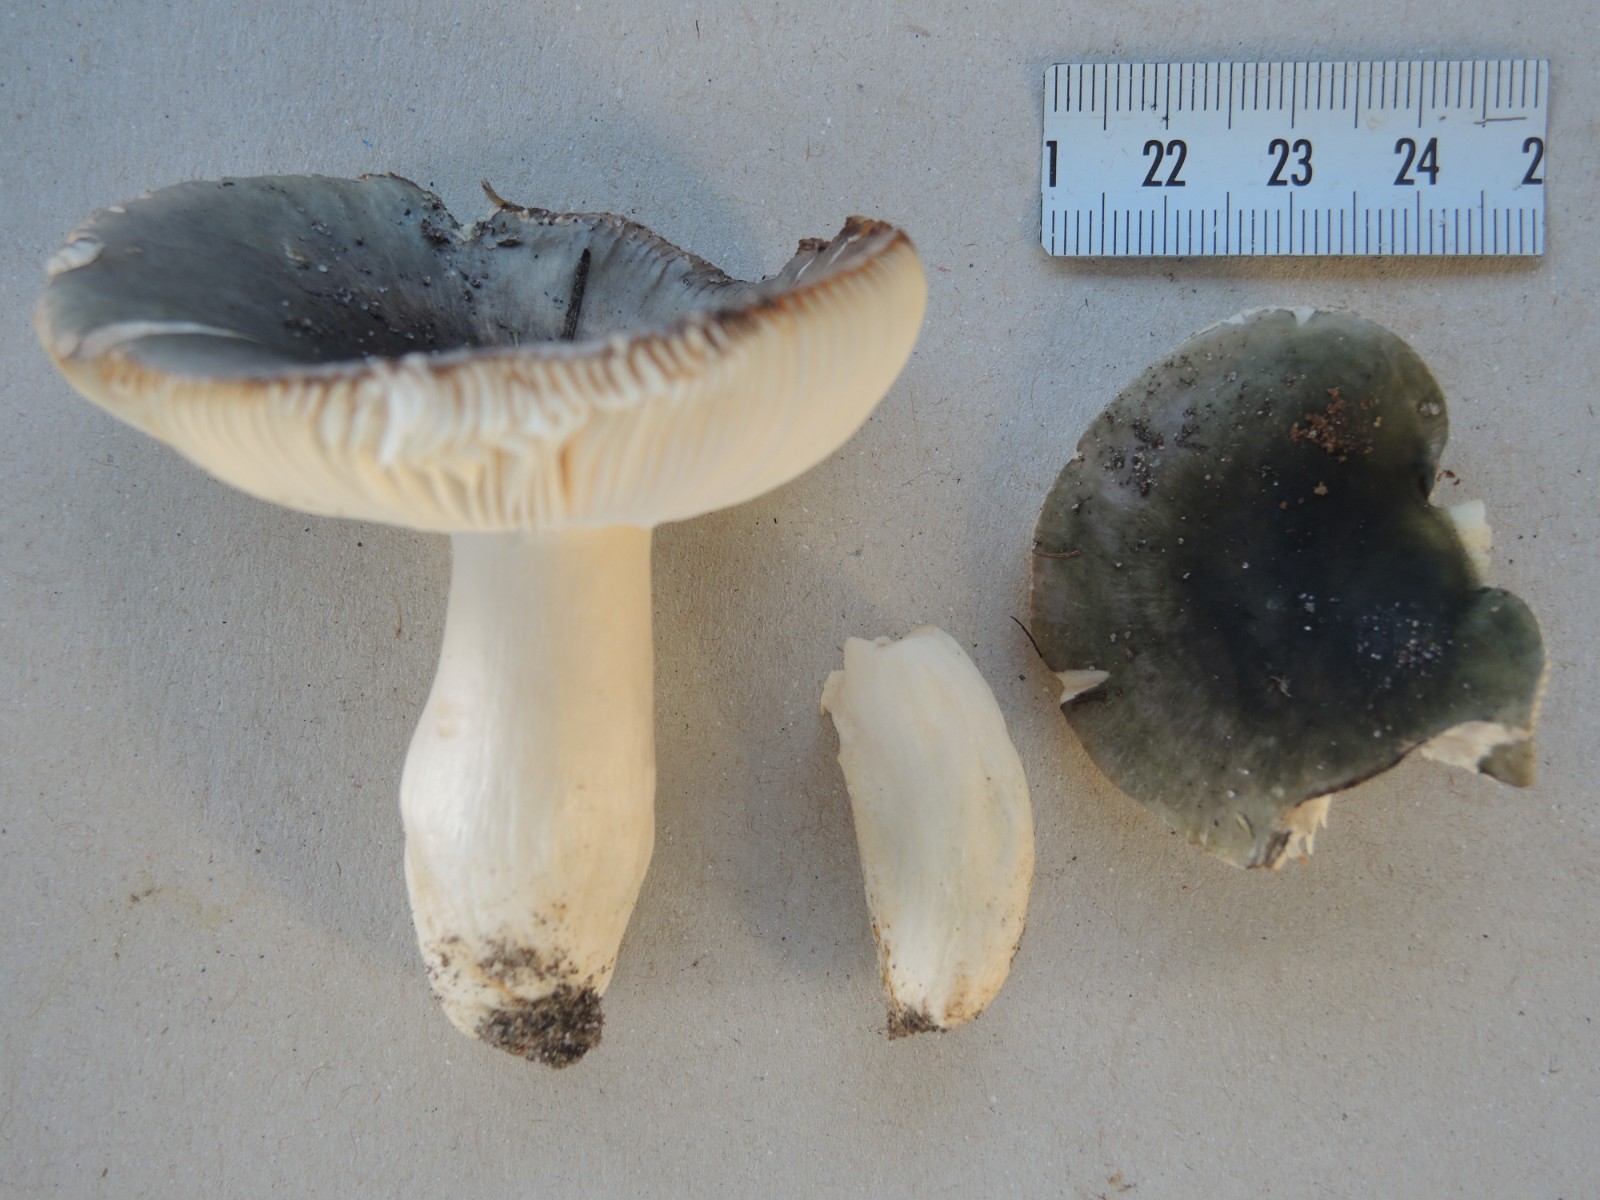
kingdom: Fungi
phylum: Basidiomycota
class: Agaricomycetes
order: Russulales
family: Russulaceae
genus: Russula
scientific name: Russula parazurea
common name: blågrå skørhat
